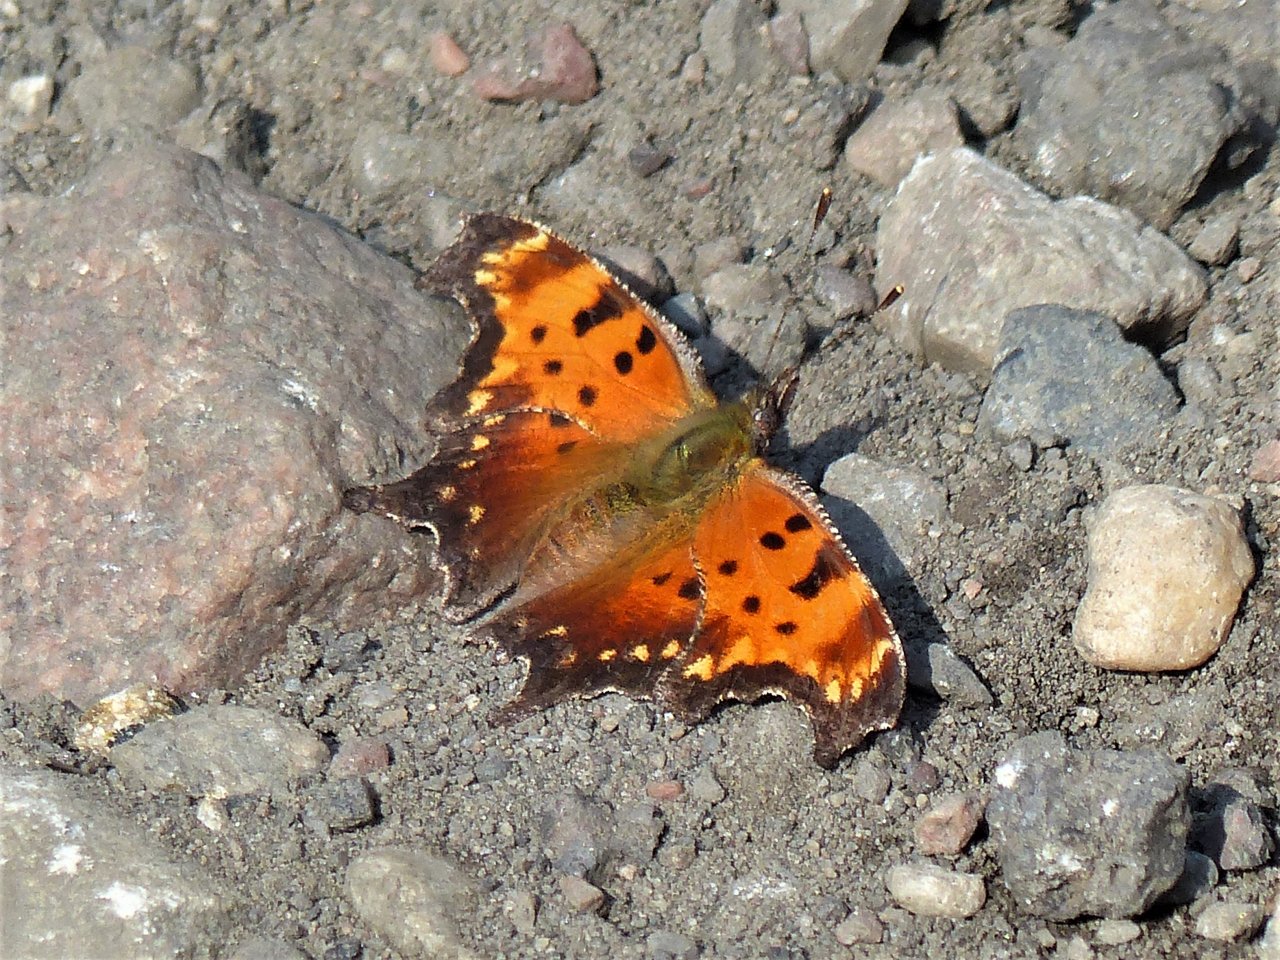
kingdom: Animalia
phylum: Arthropoda
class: Insecta
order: Lepidoptera
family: Nymphalidae
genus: Polygonia
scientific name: Polygonia progne
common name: Gray Comma
